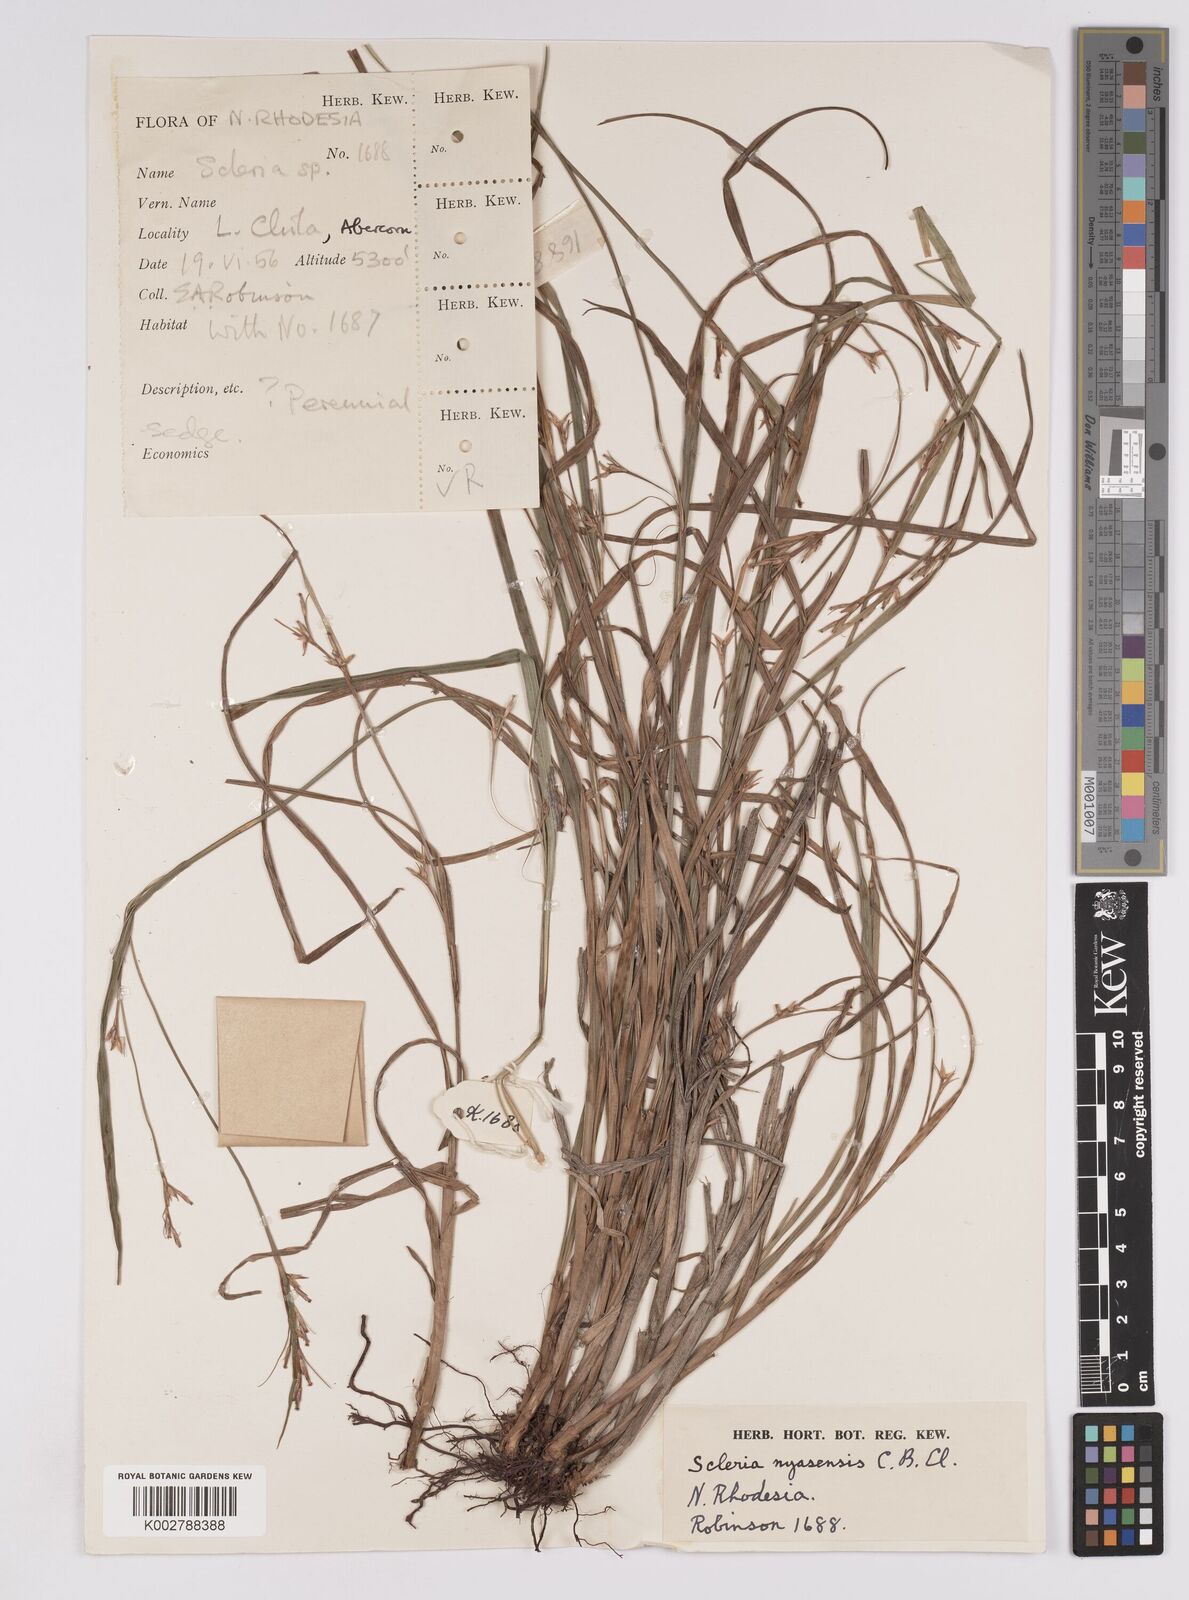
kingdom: Plantae
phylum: Tracheophyta
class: Liliopsida
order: Poales
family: Cyperaceae
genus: Scleria
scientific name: Scleria nyasensis
